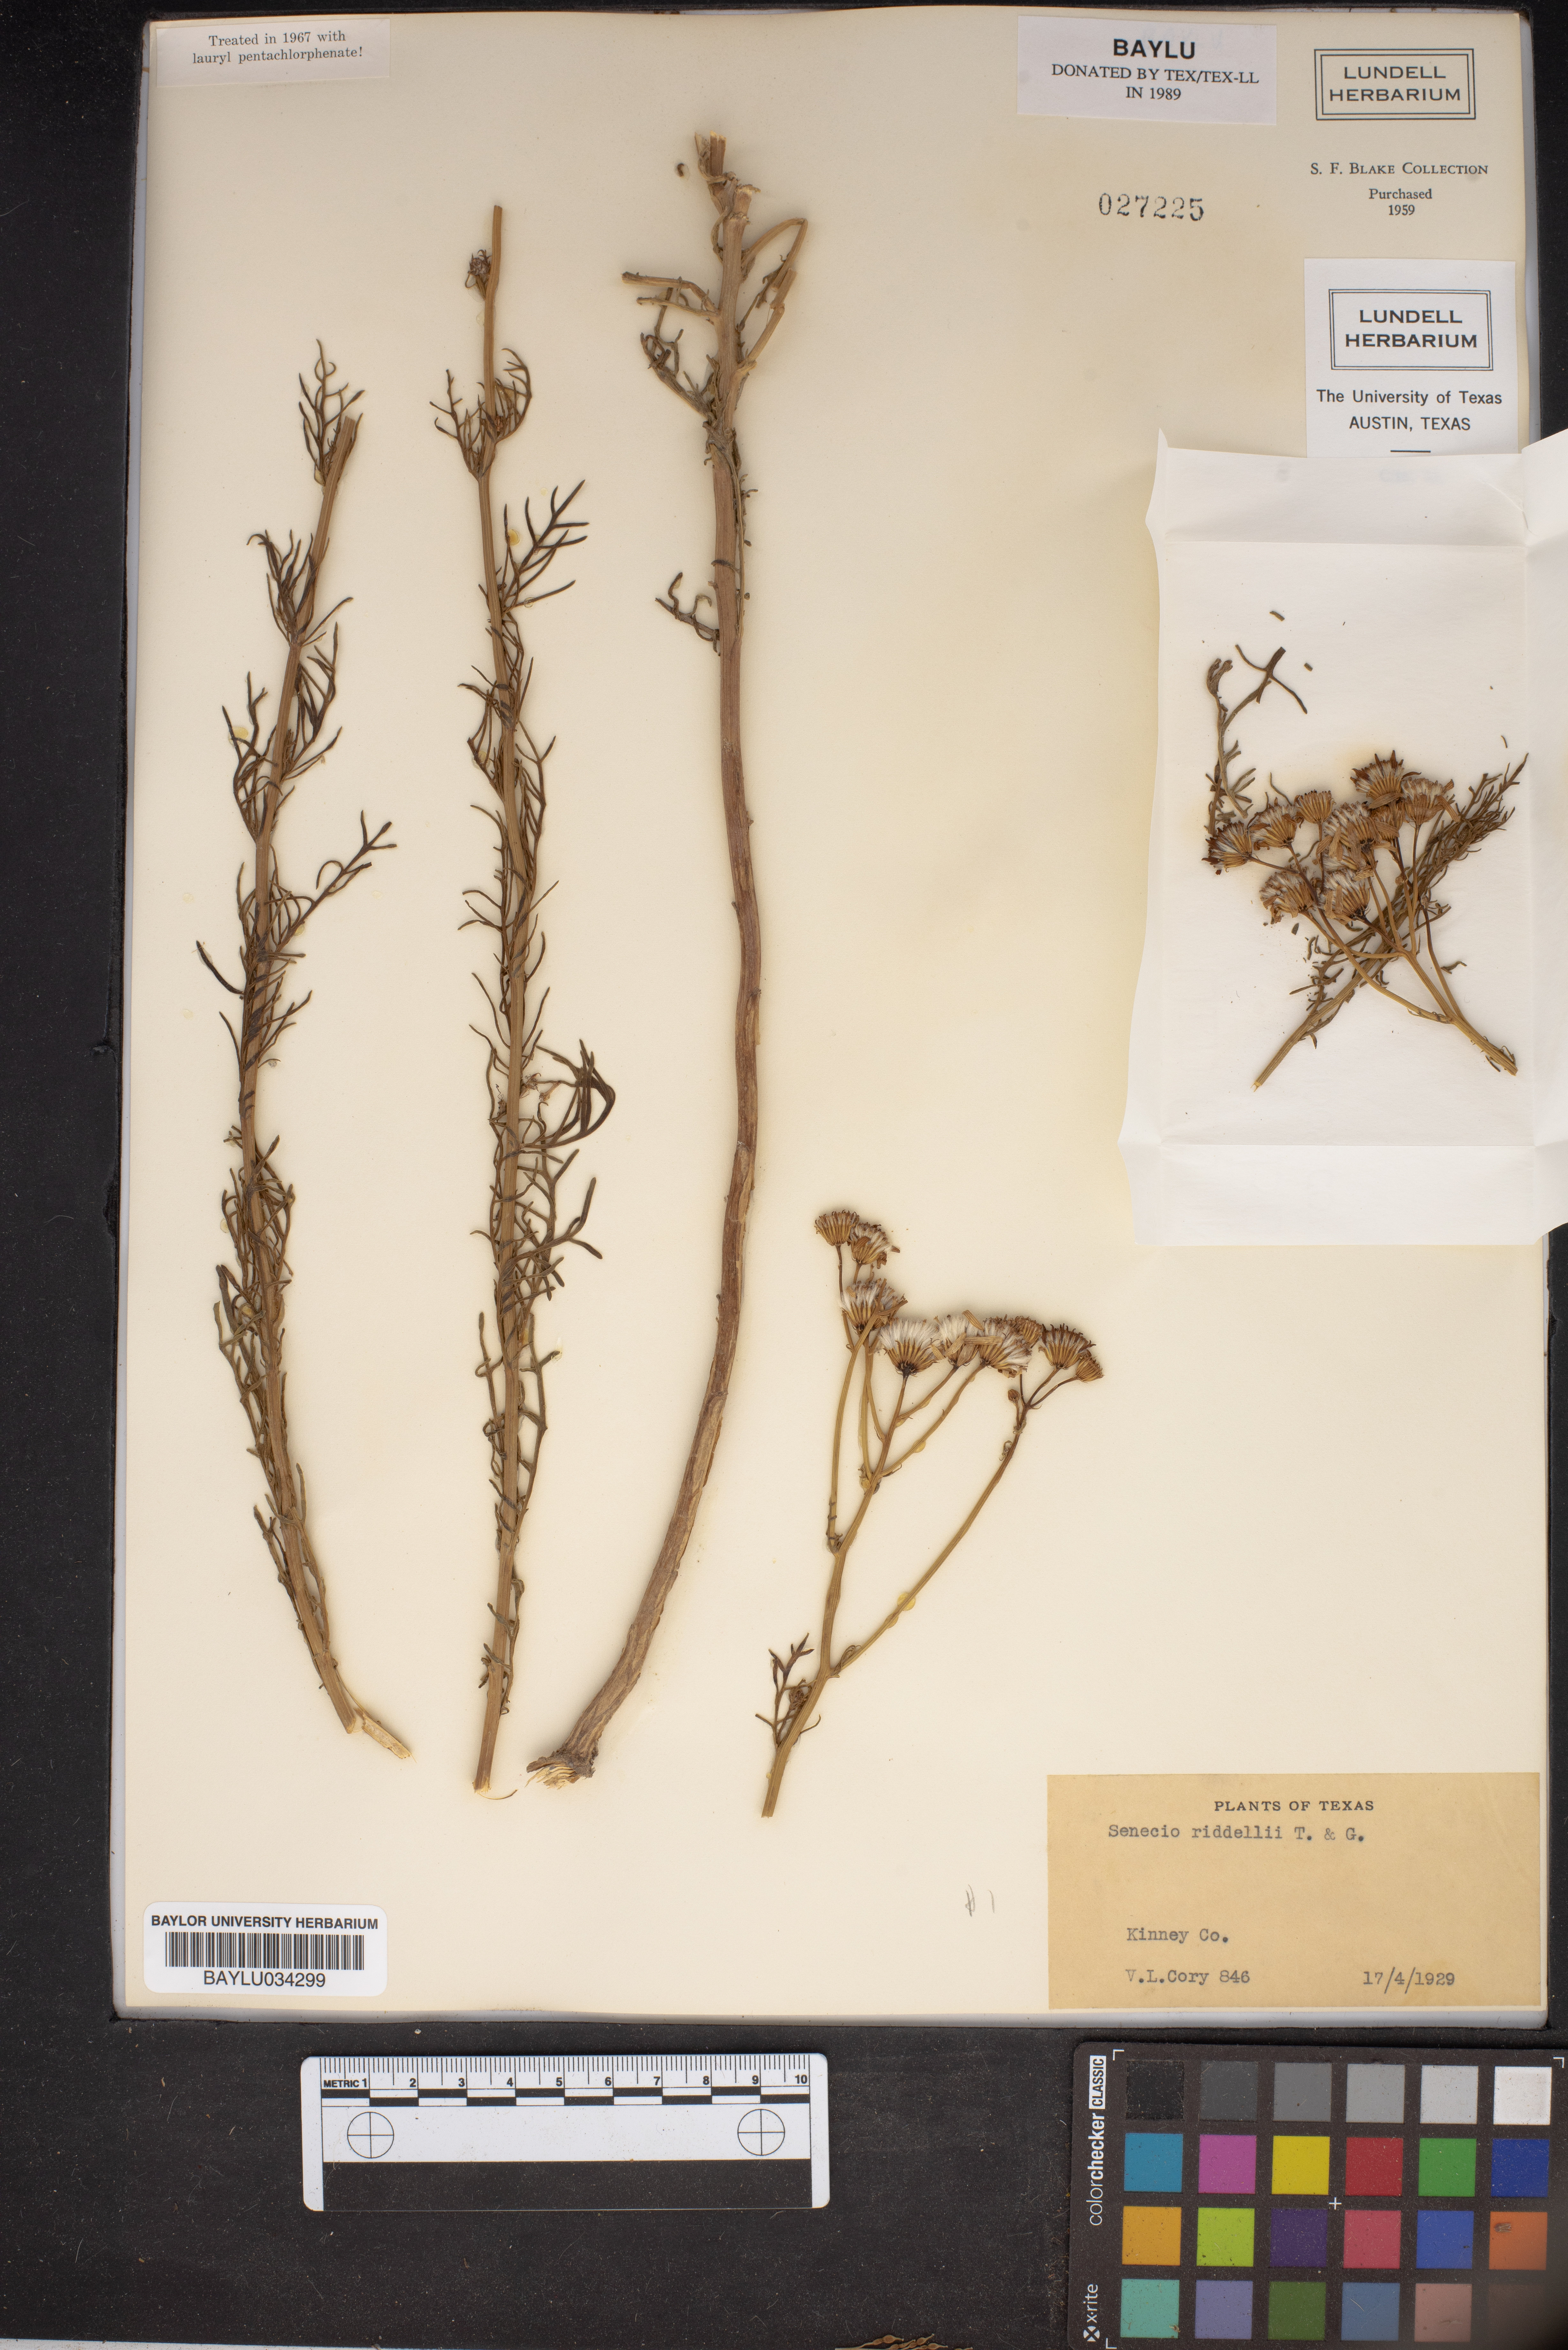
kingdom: Plantae
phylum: Tracheophyta
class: Magnoliopsida
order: Asterales
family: Asteraceae
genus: Senecio
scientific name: Senecio riddellii
